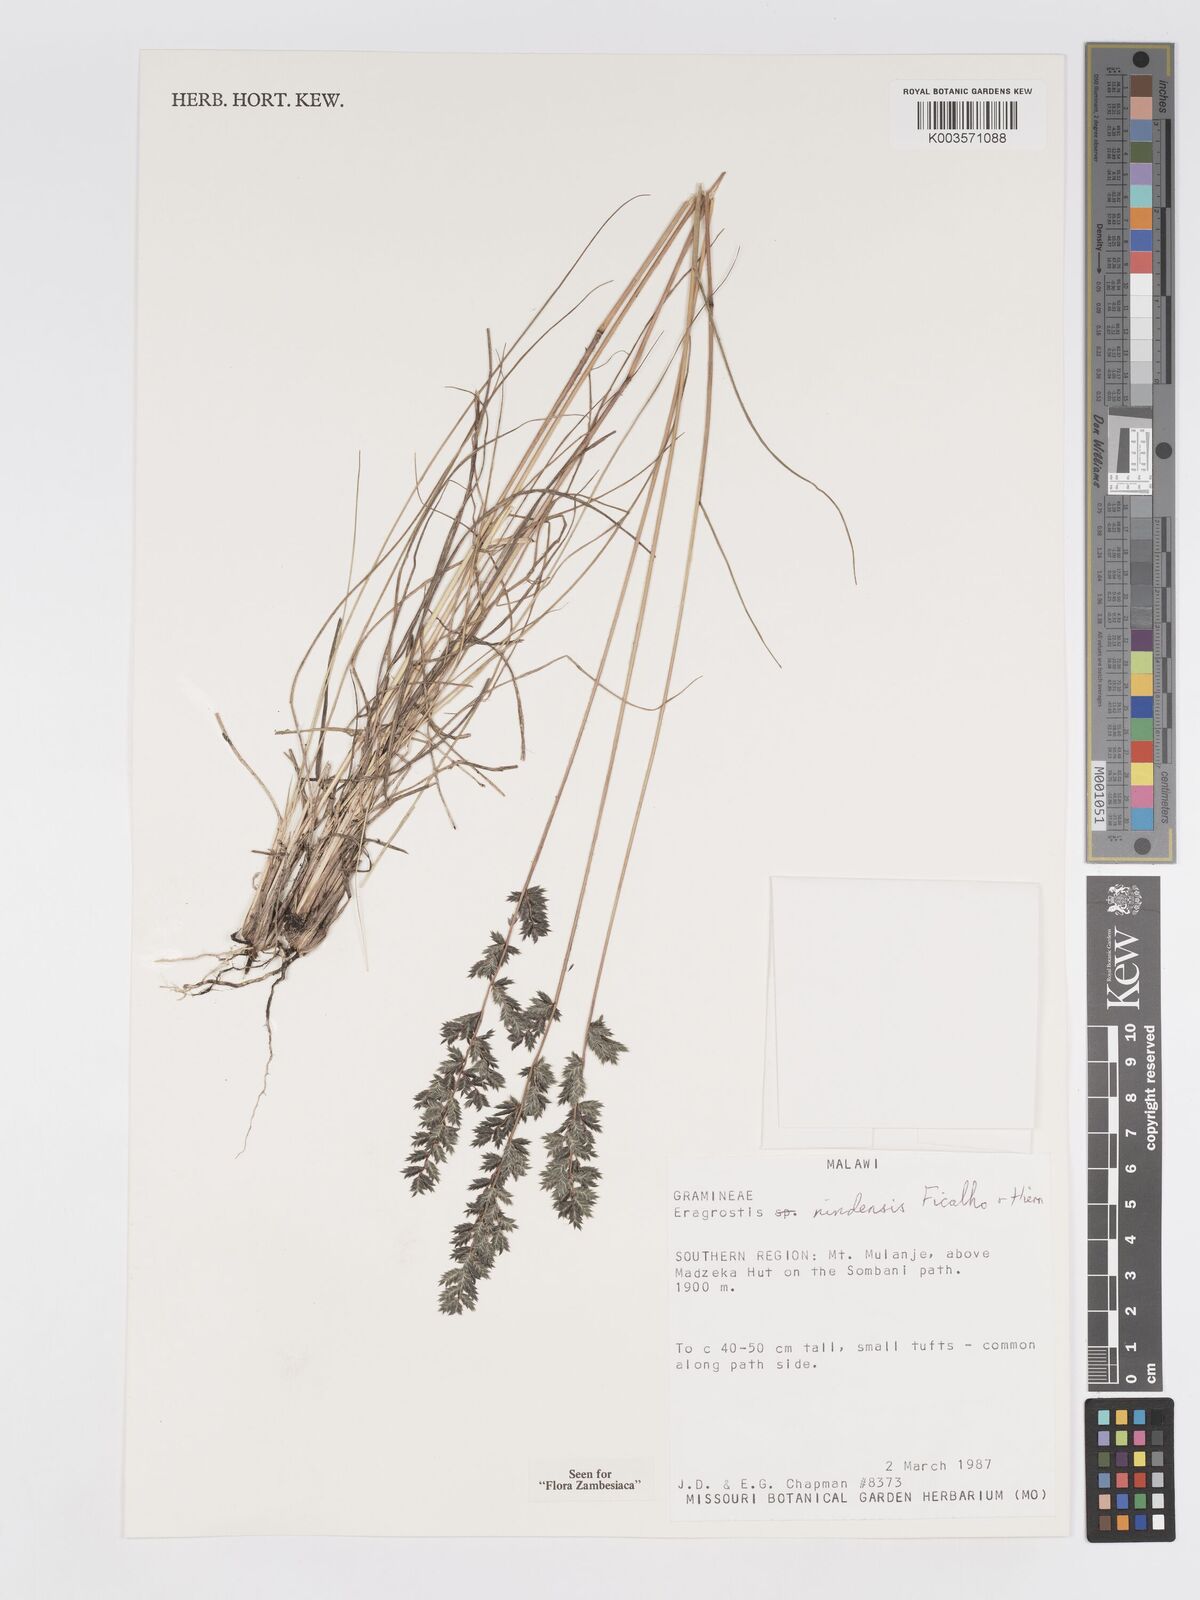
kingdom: Plantae
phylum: Tracheophyta
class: Liliopsida
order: Poales
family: Poaceae
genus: Eragrostis
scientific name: Eragrostis nindensis
